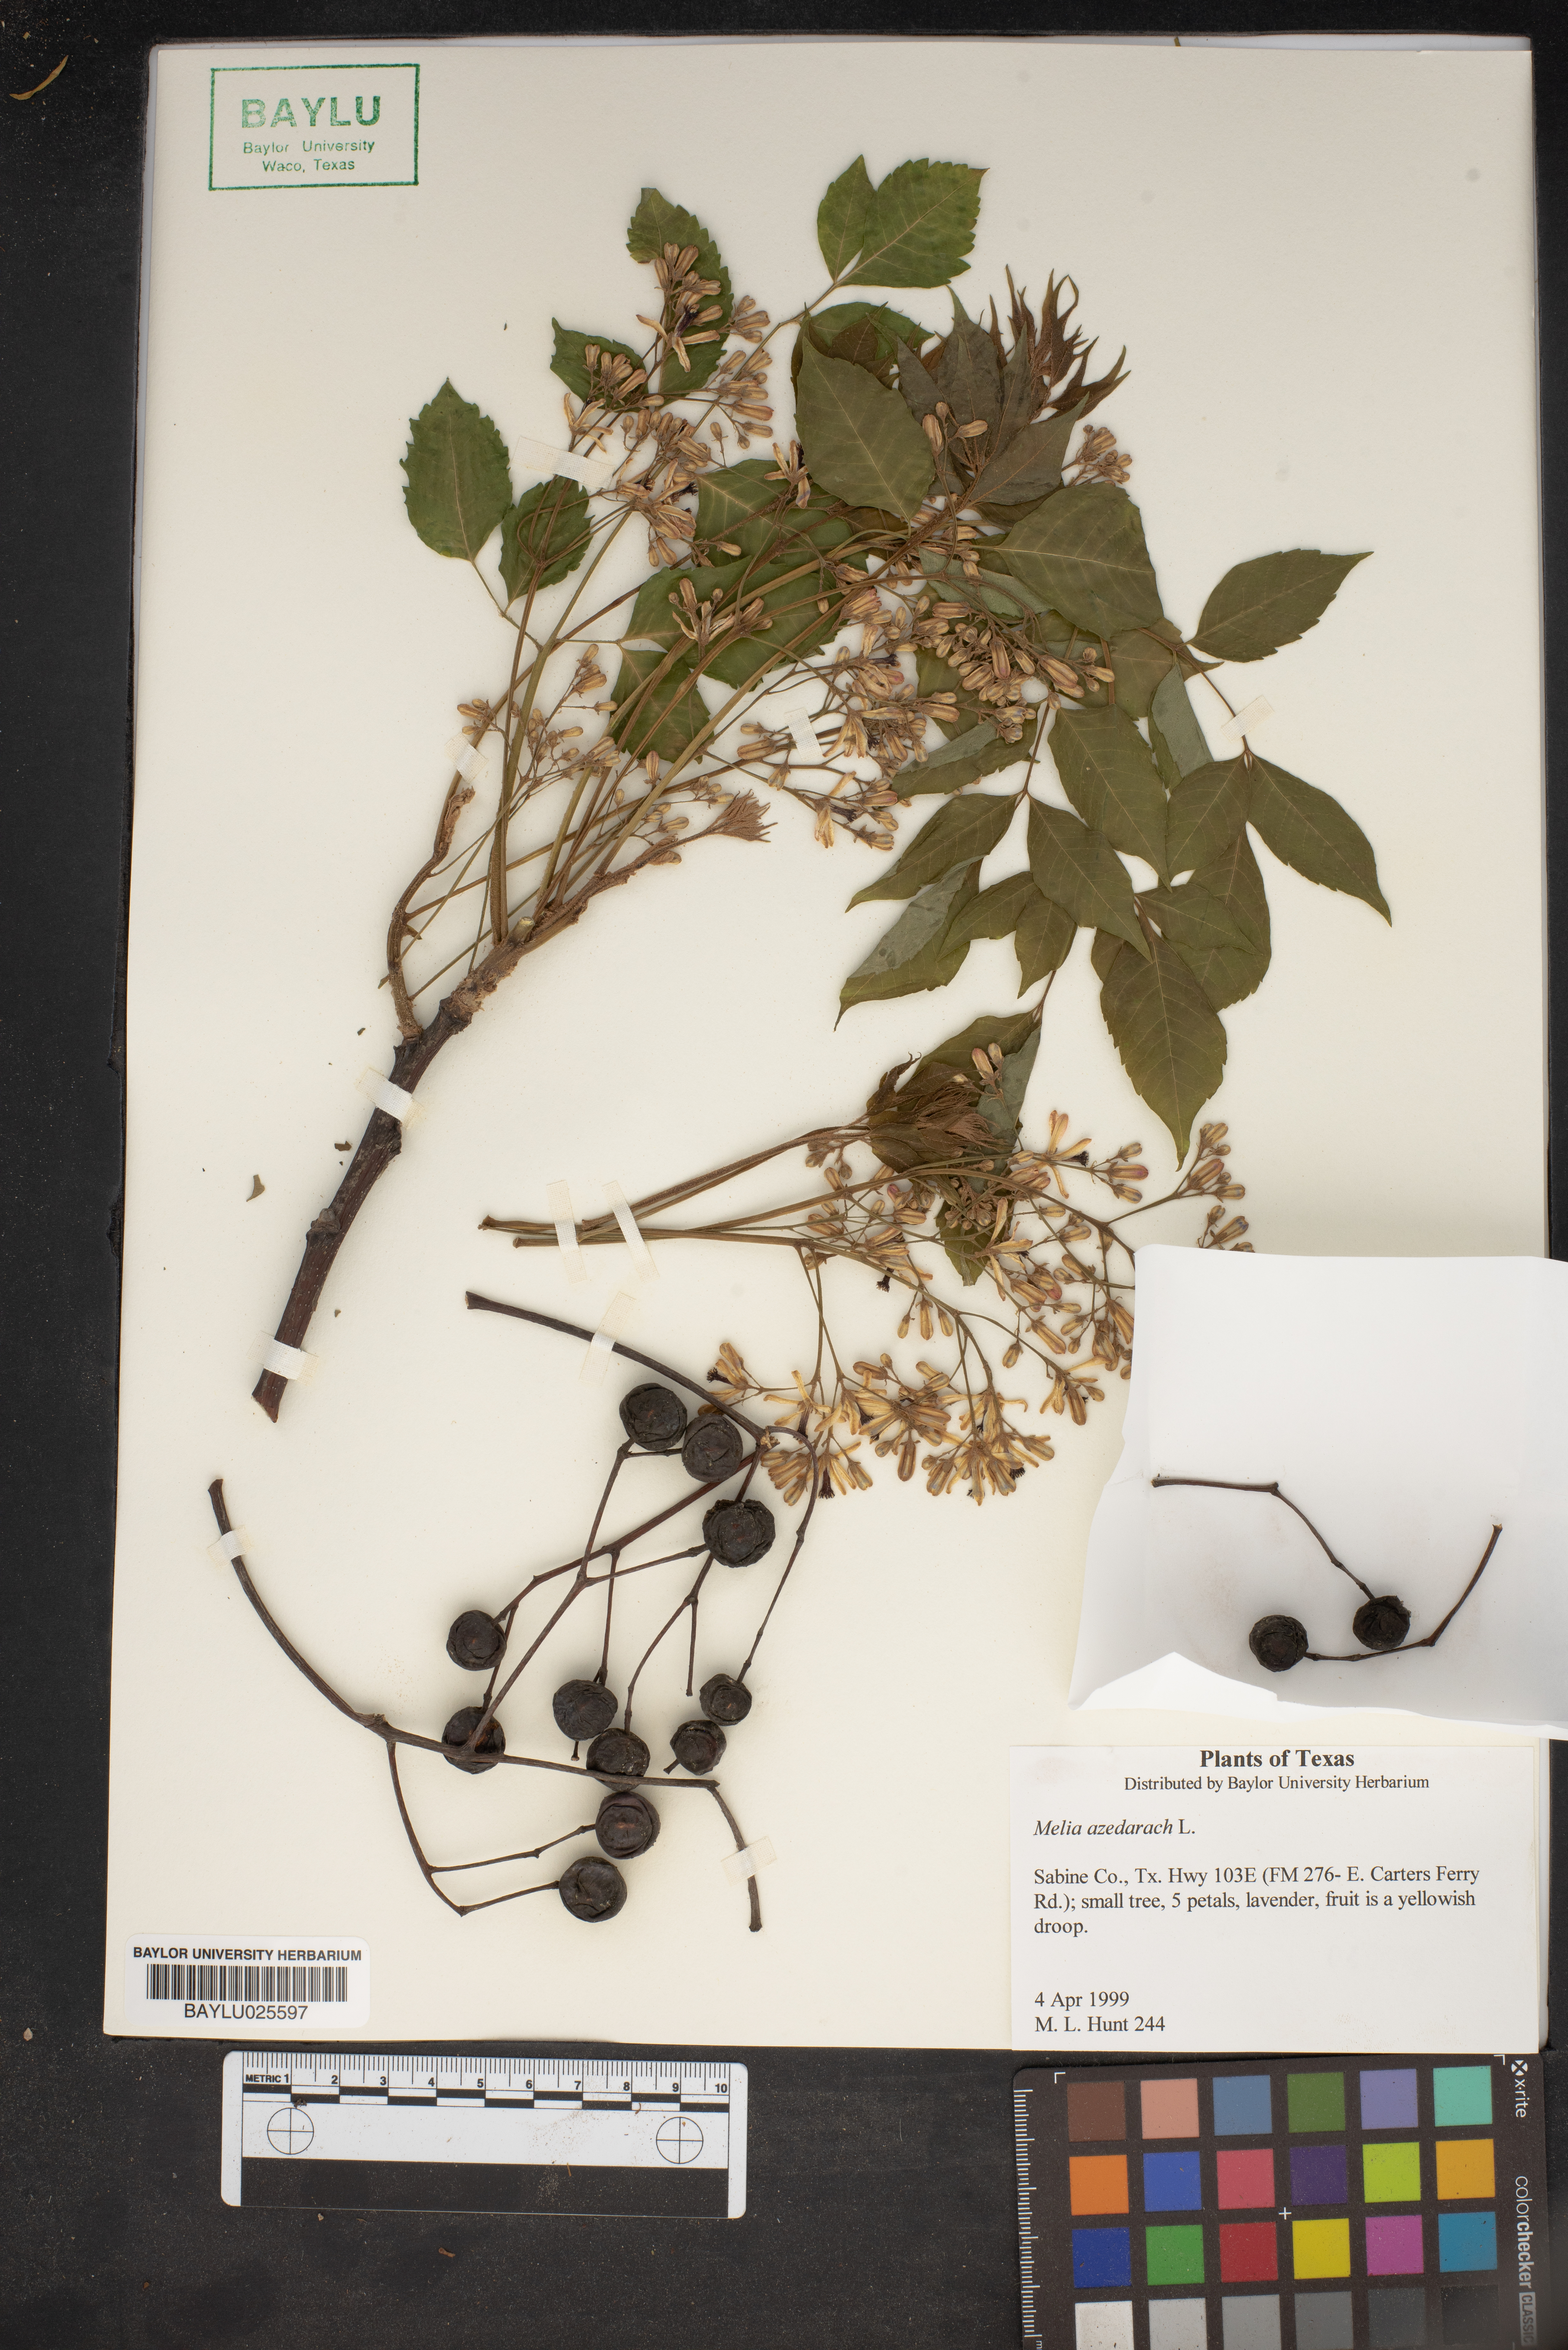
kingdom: Plantae
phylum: Tracheophyta
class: Magnoliopsida
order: Sapindales
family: Meliaceae
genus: Melia
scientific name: Melia azedarach
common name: Chinaberrytree
